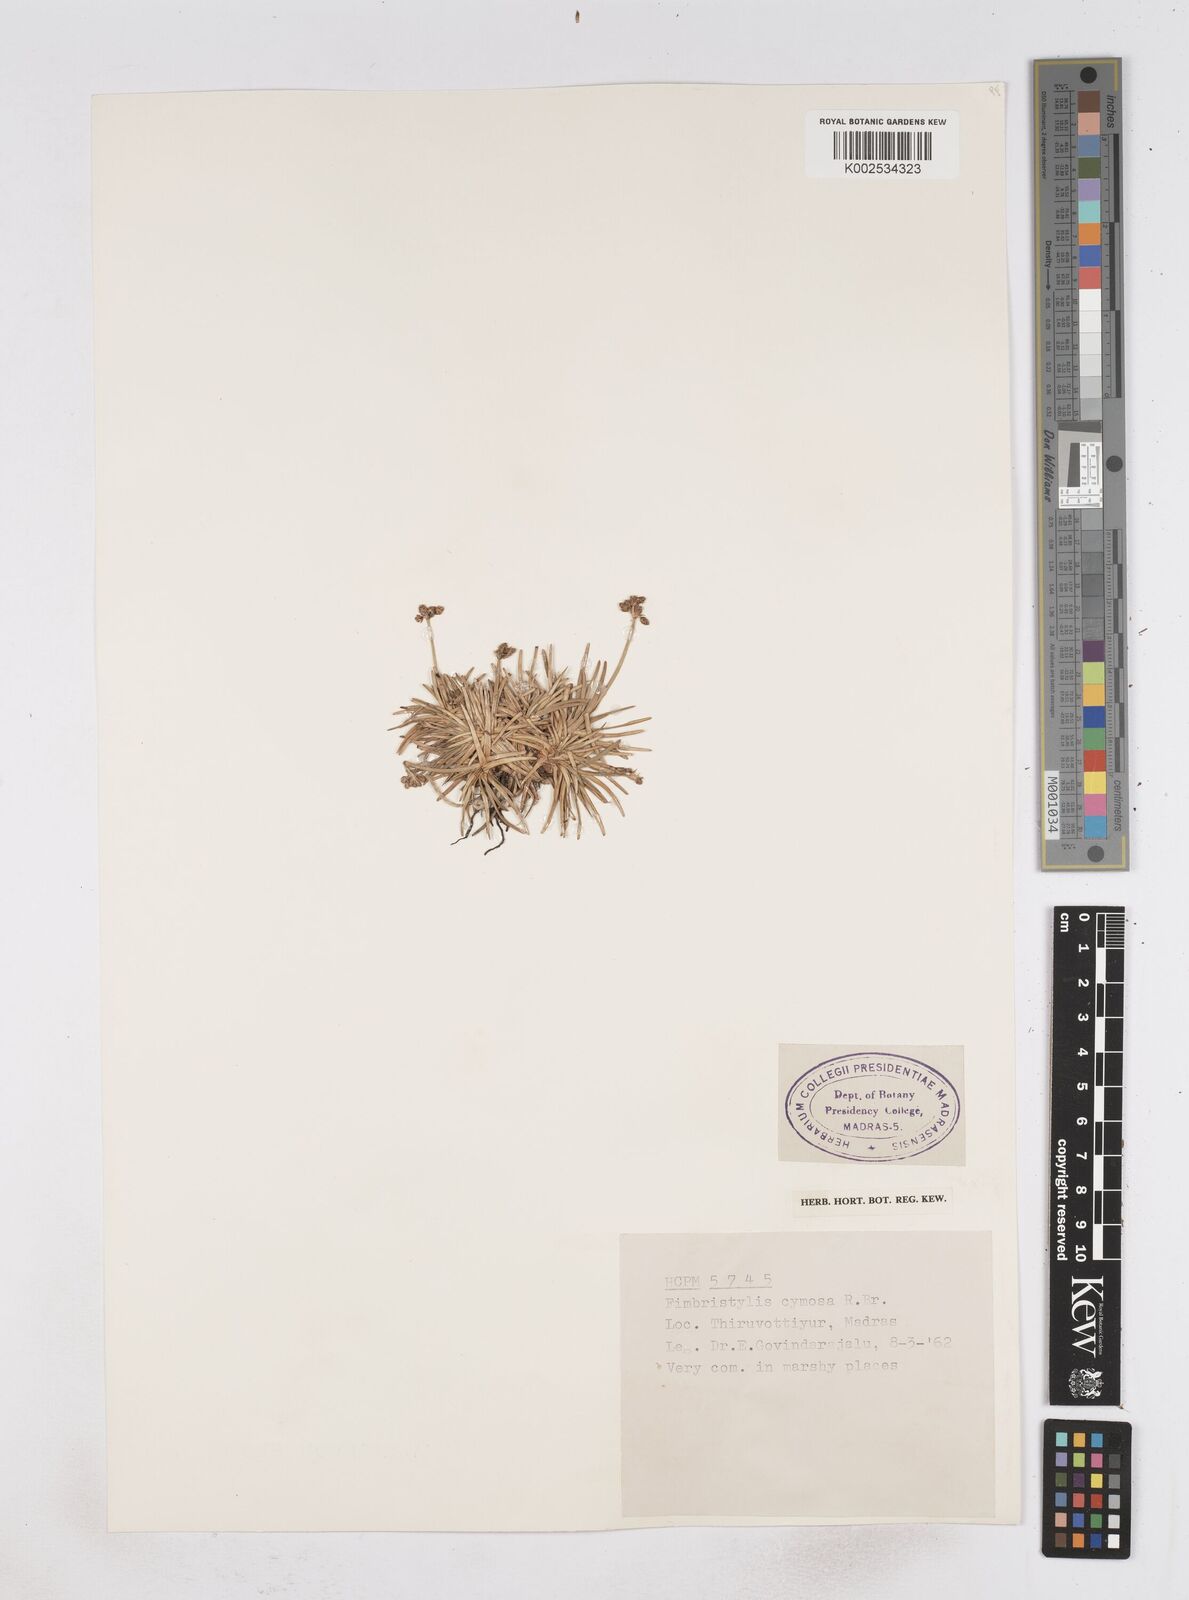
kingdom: Plantae
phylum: Tracheophyta
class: Liliopsida
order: Poales
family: Cyperaceae
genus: Fimbristylis
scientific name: Fimbristylis cymosa
